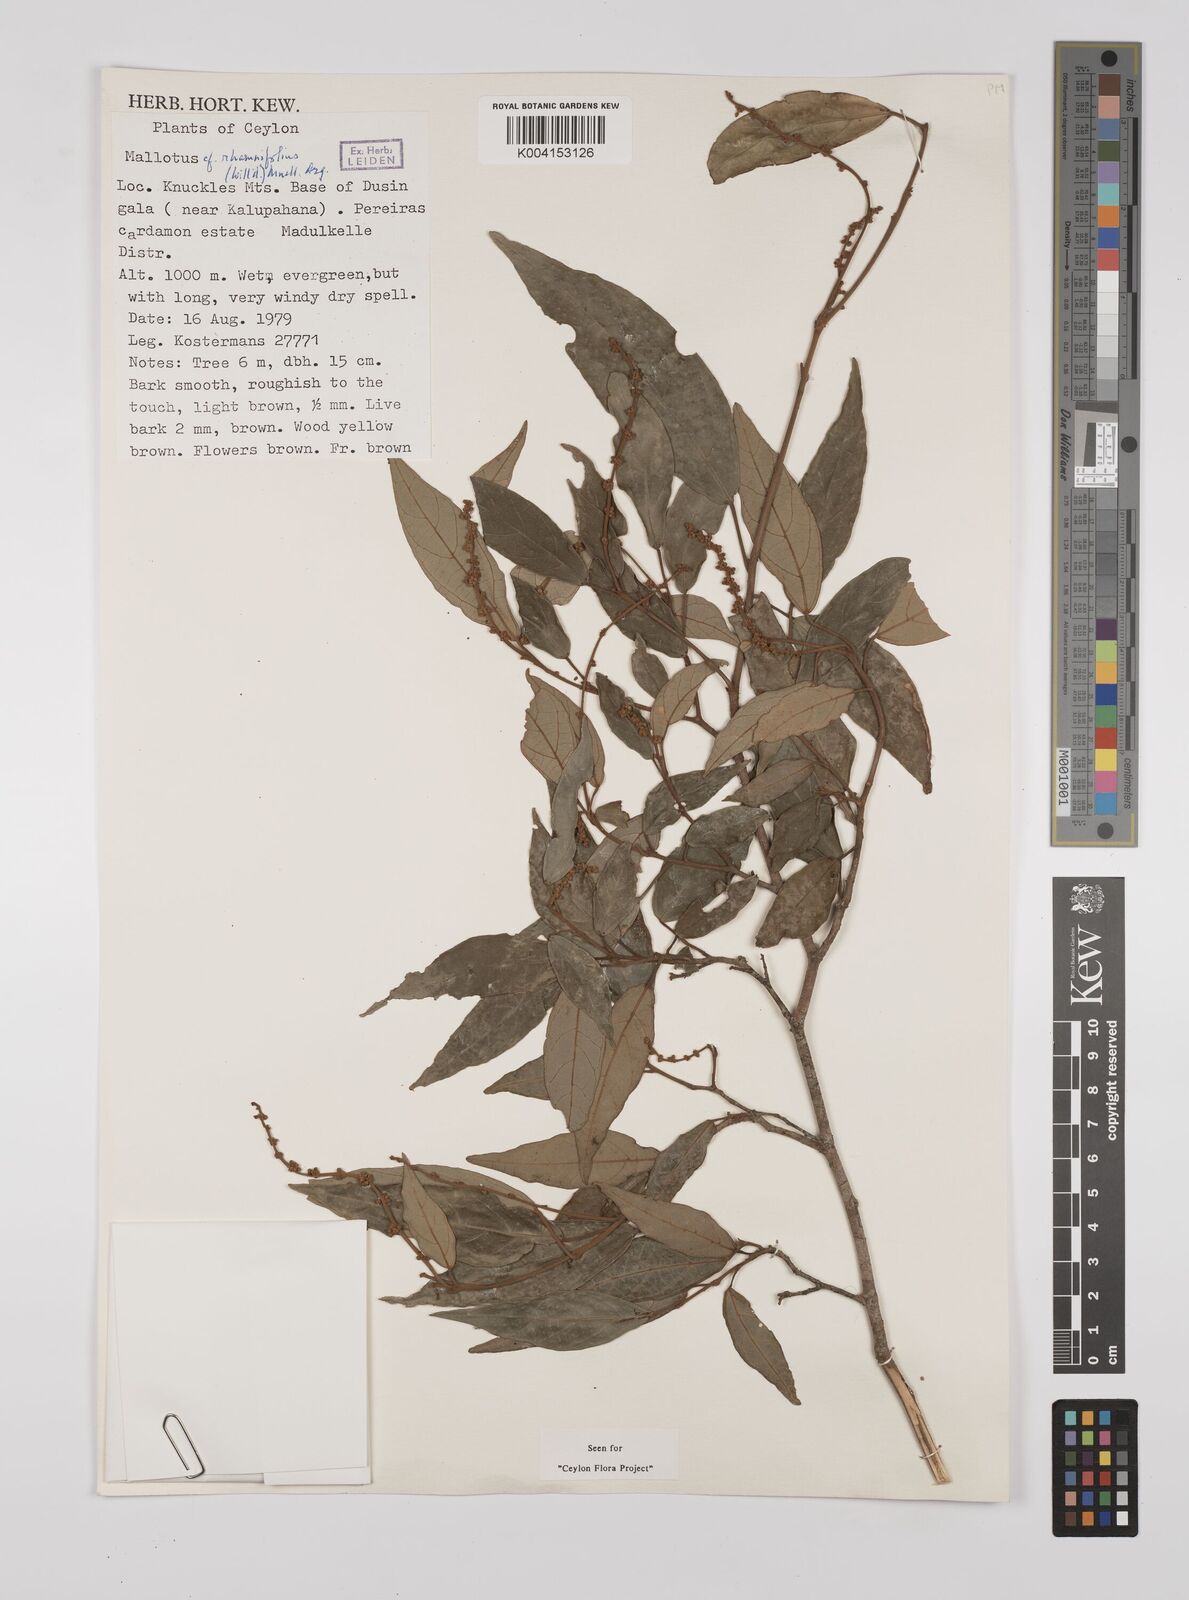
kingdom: Plantae
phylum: Tracheophyta
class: Magnoliopsida
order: Malpighiales
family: Euphorbiaceae
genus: Mallotus
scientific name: Mallotus rhamnifolius
